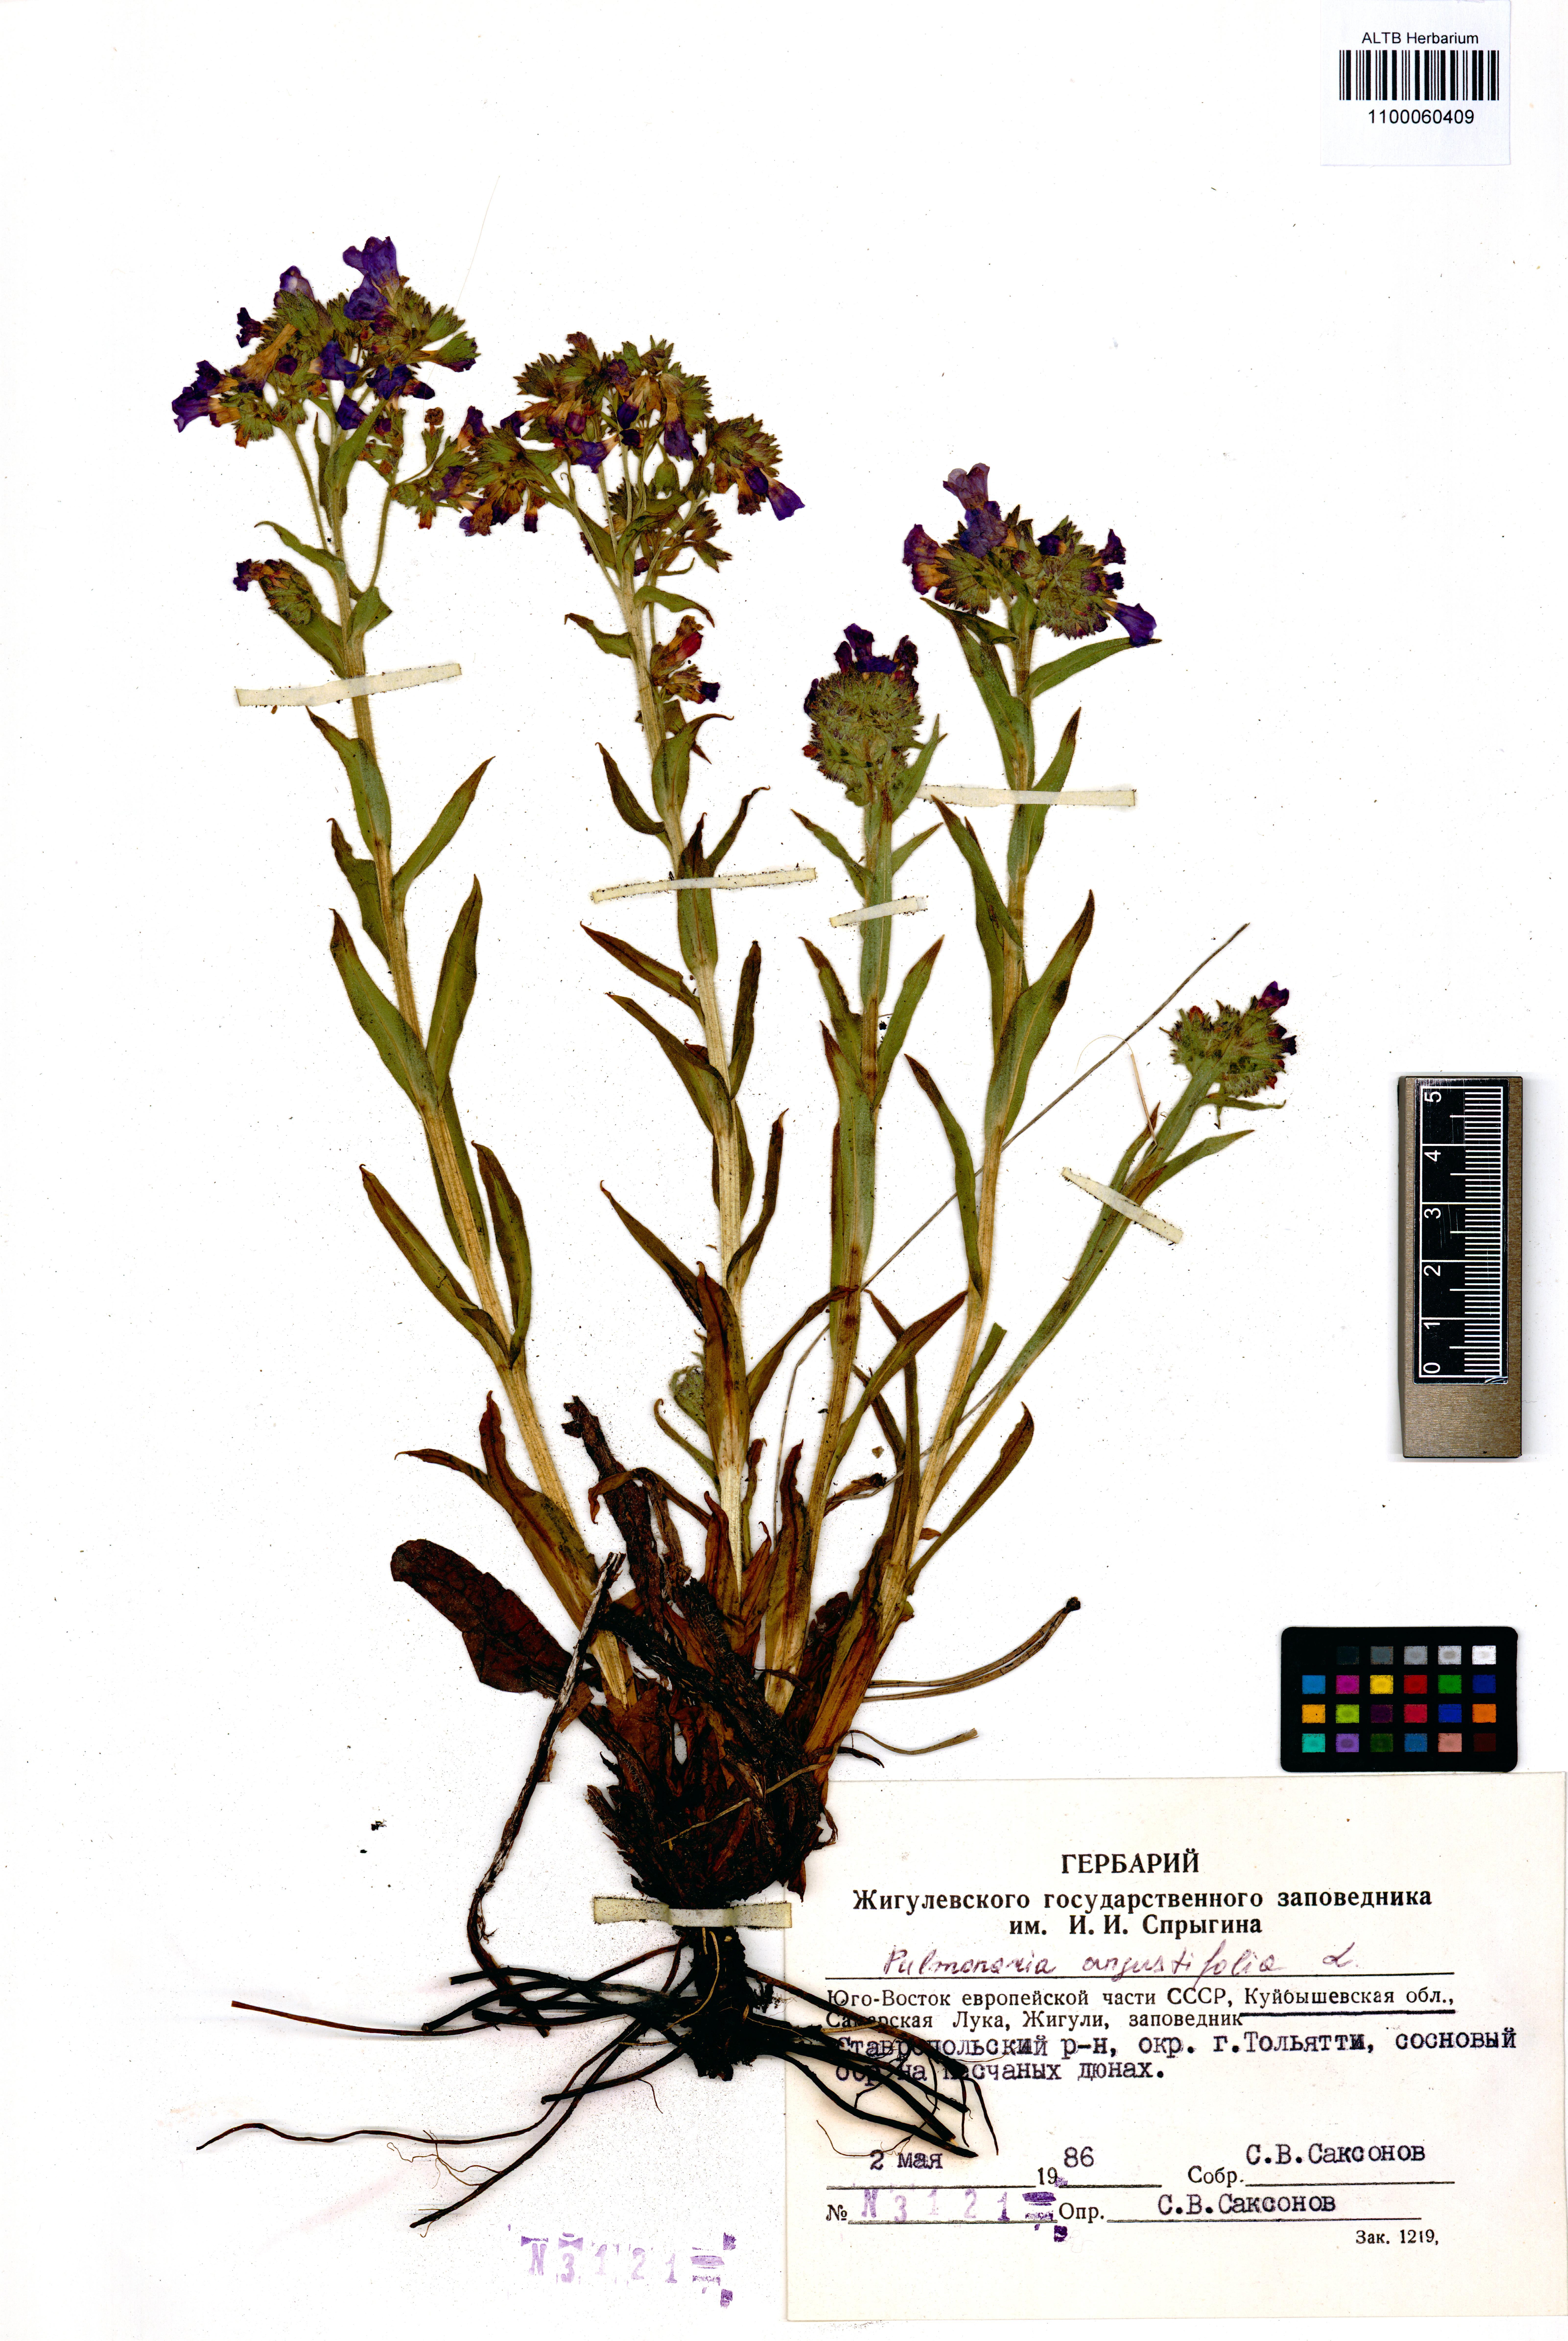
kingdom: Plantae
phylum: Tracheophyta
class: Magnoliopsida
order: Boraginales
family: Boraginaceae
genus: Pulmonaria
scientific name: Pulmonaria angustifolia
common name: Blue cowslip
